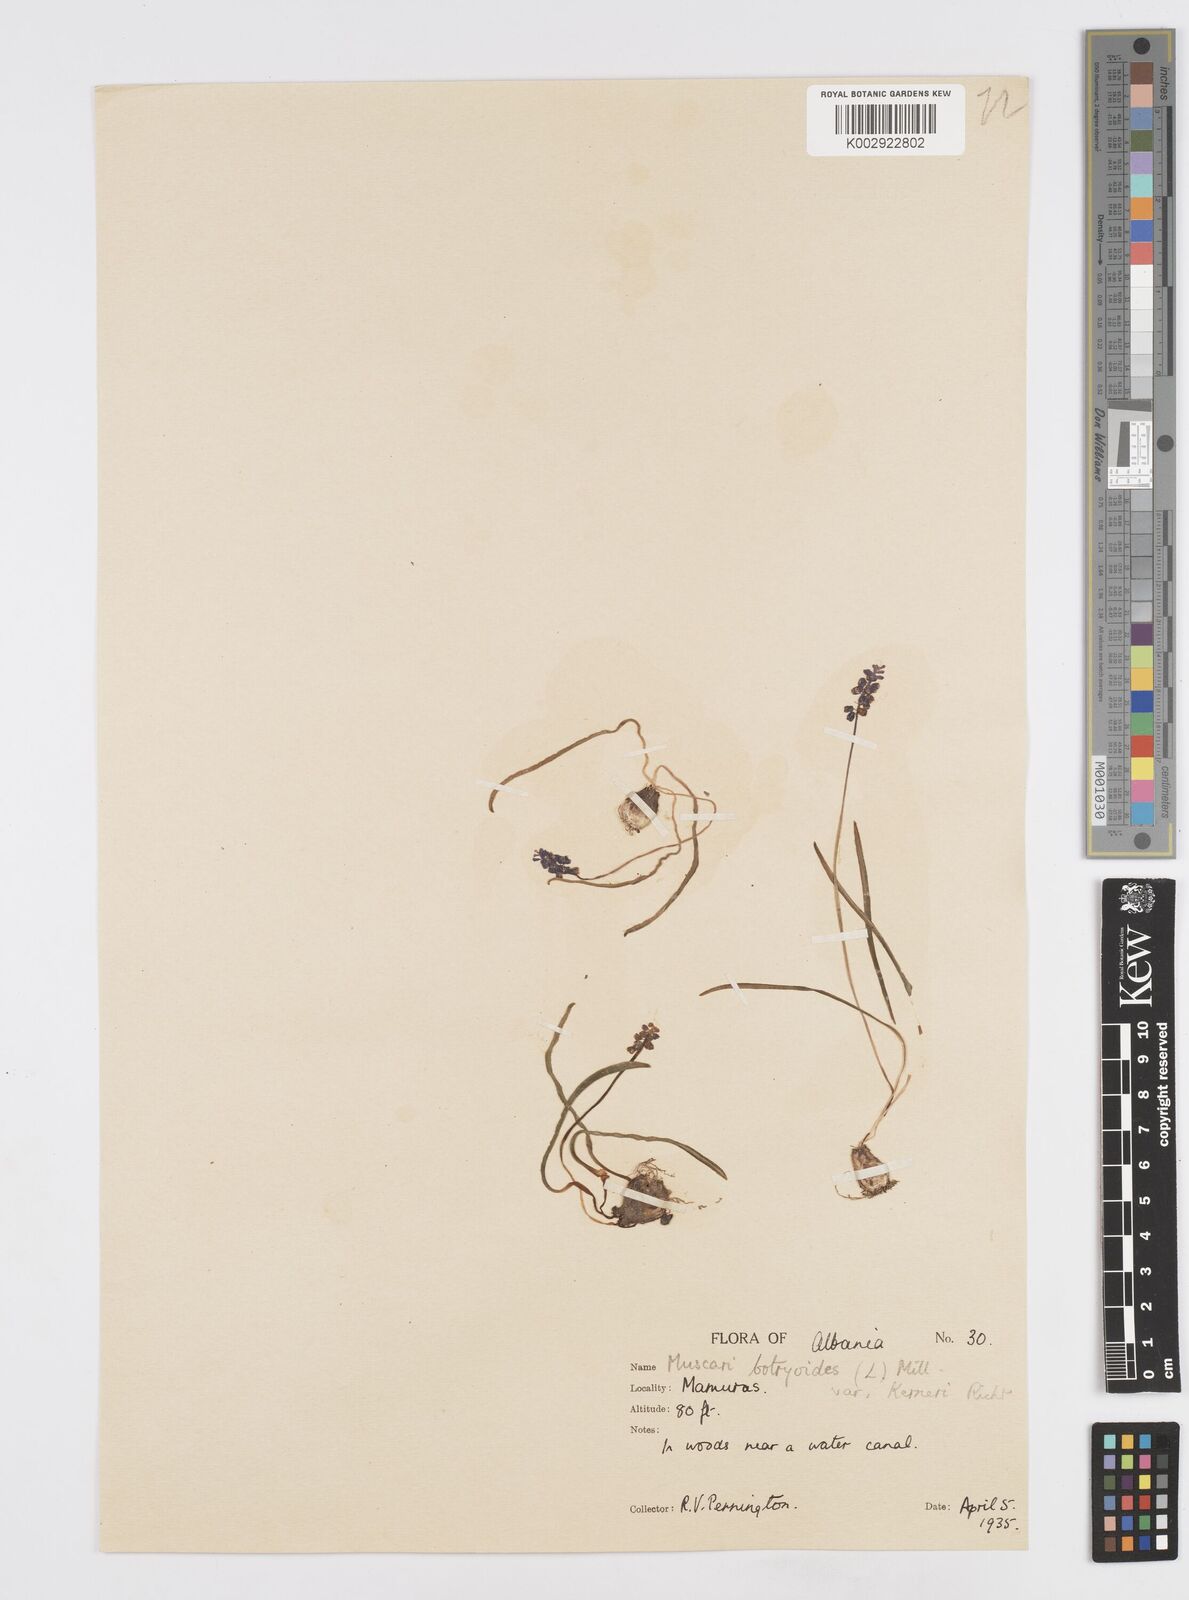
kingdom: Plantae
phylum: Tracheophyta
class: Liliopsida
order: Asparagales
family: Asparagaceae
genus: Muscari
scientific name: Muscari botryoides
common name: Compact grape-hyacinth
